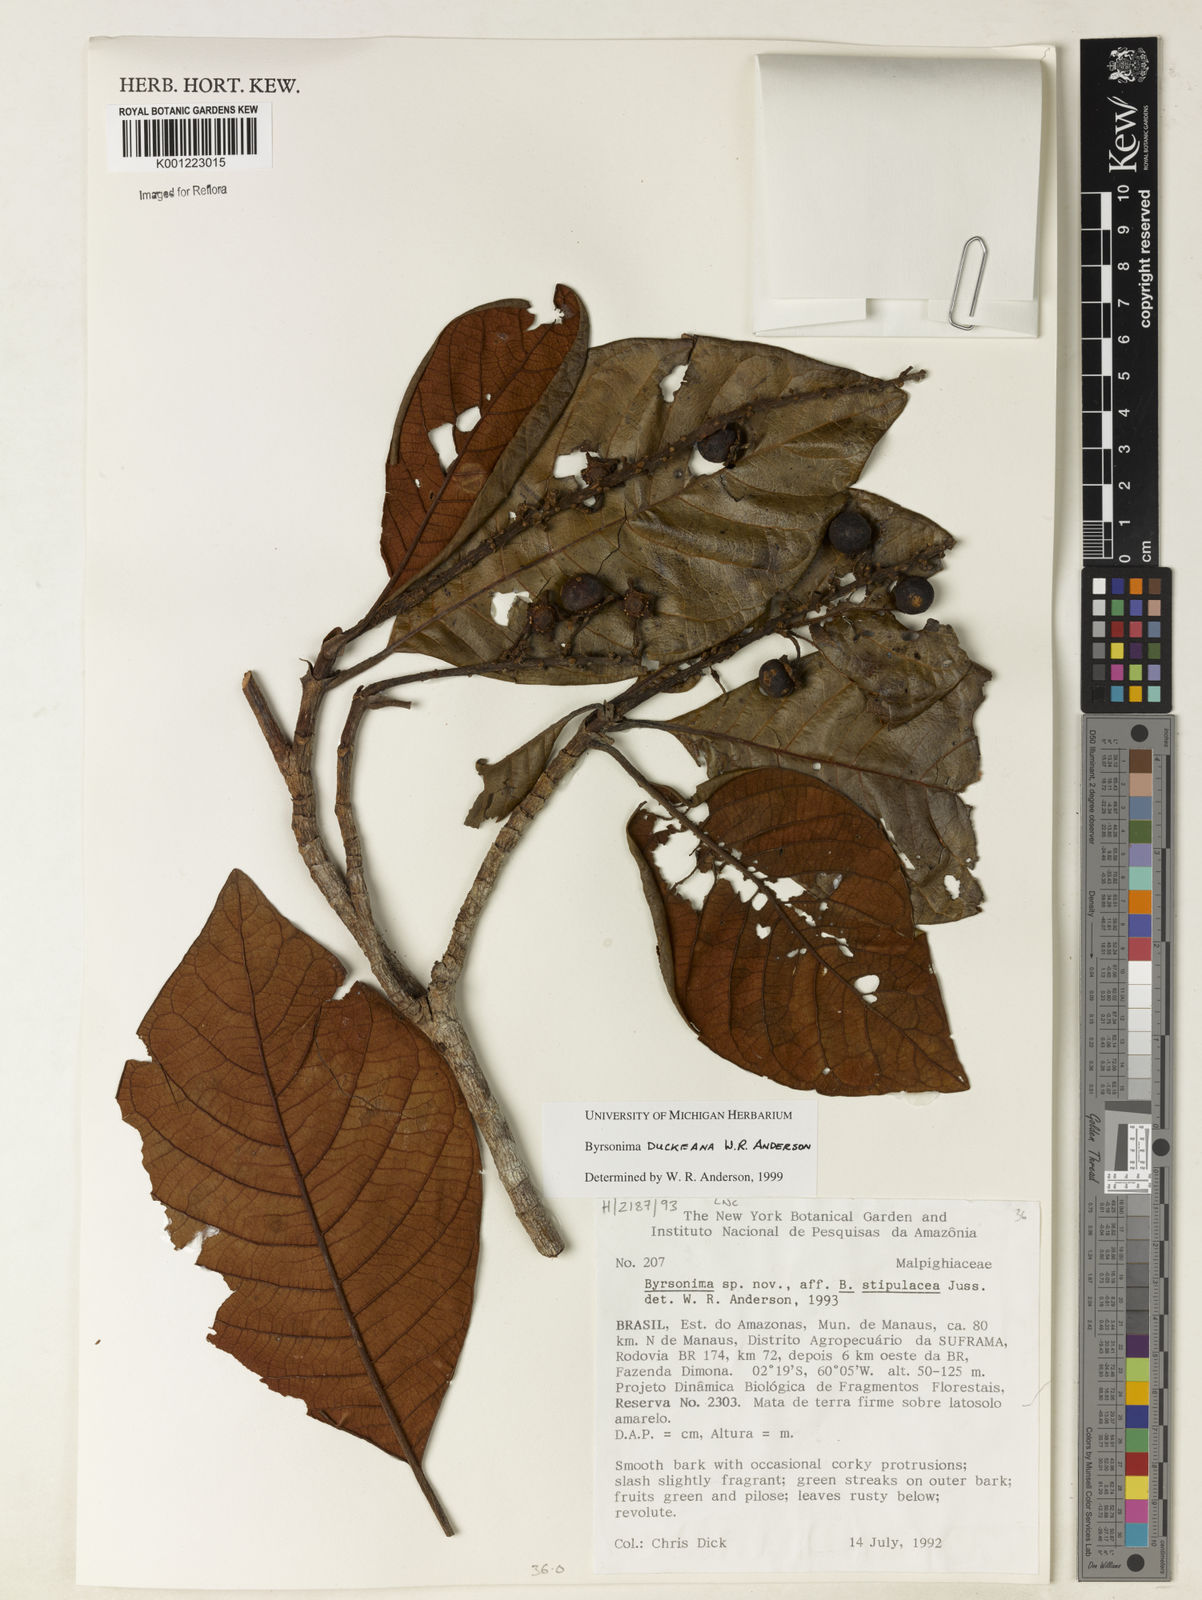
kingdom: Plantae
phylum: Tracheophyta
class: Magnoliopsida
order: Malpighiales
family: Malpighiaceae
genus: Byrsonima
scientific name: Byrsonima duckeana
